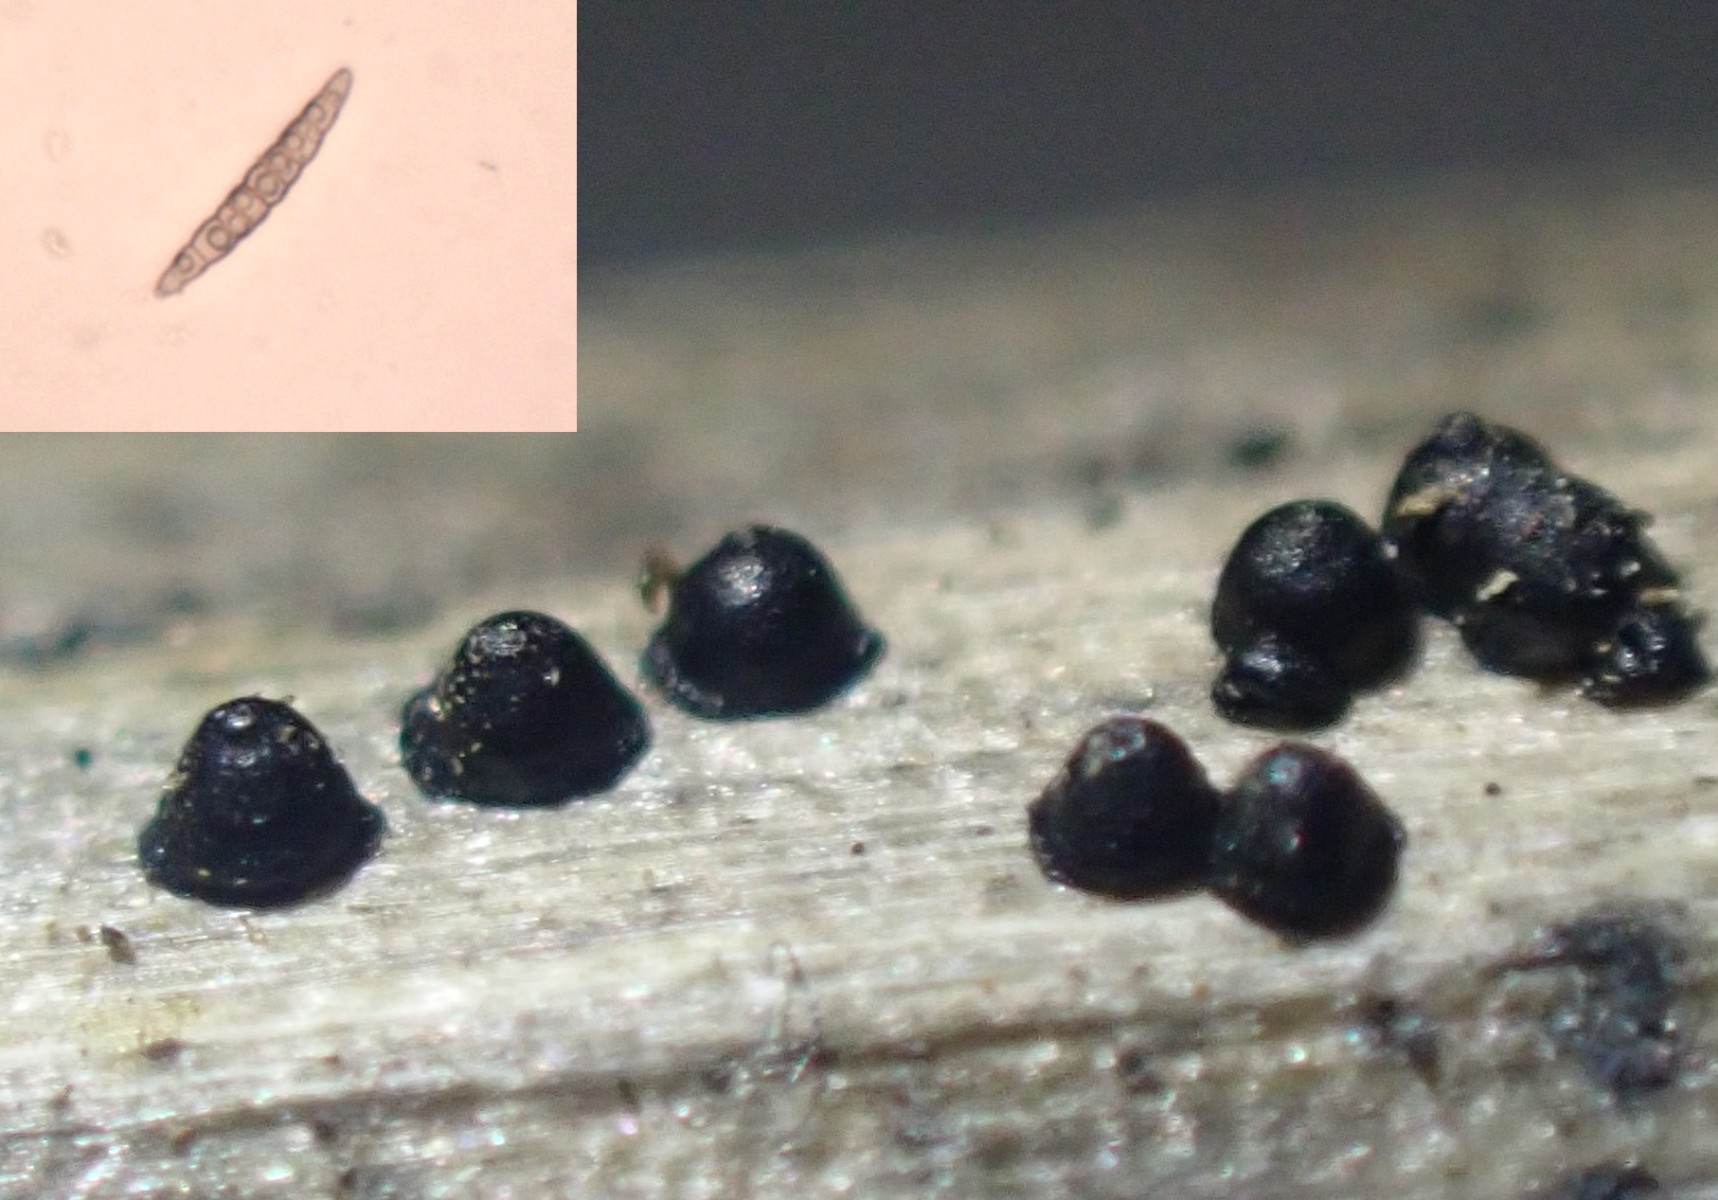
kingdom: Fungi
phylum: Ascomycota
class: Dothideomycetes
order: Pleosporales
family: Leptosphaeriaceae
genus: Leptosphaeria
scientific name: Leptosphaeria acuta
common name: spids kulkegle
